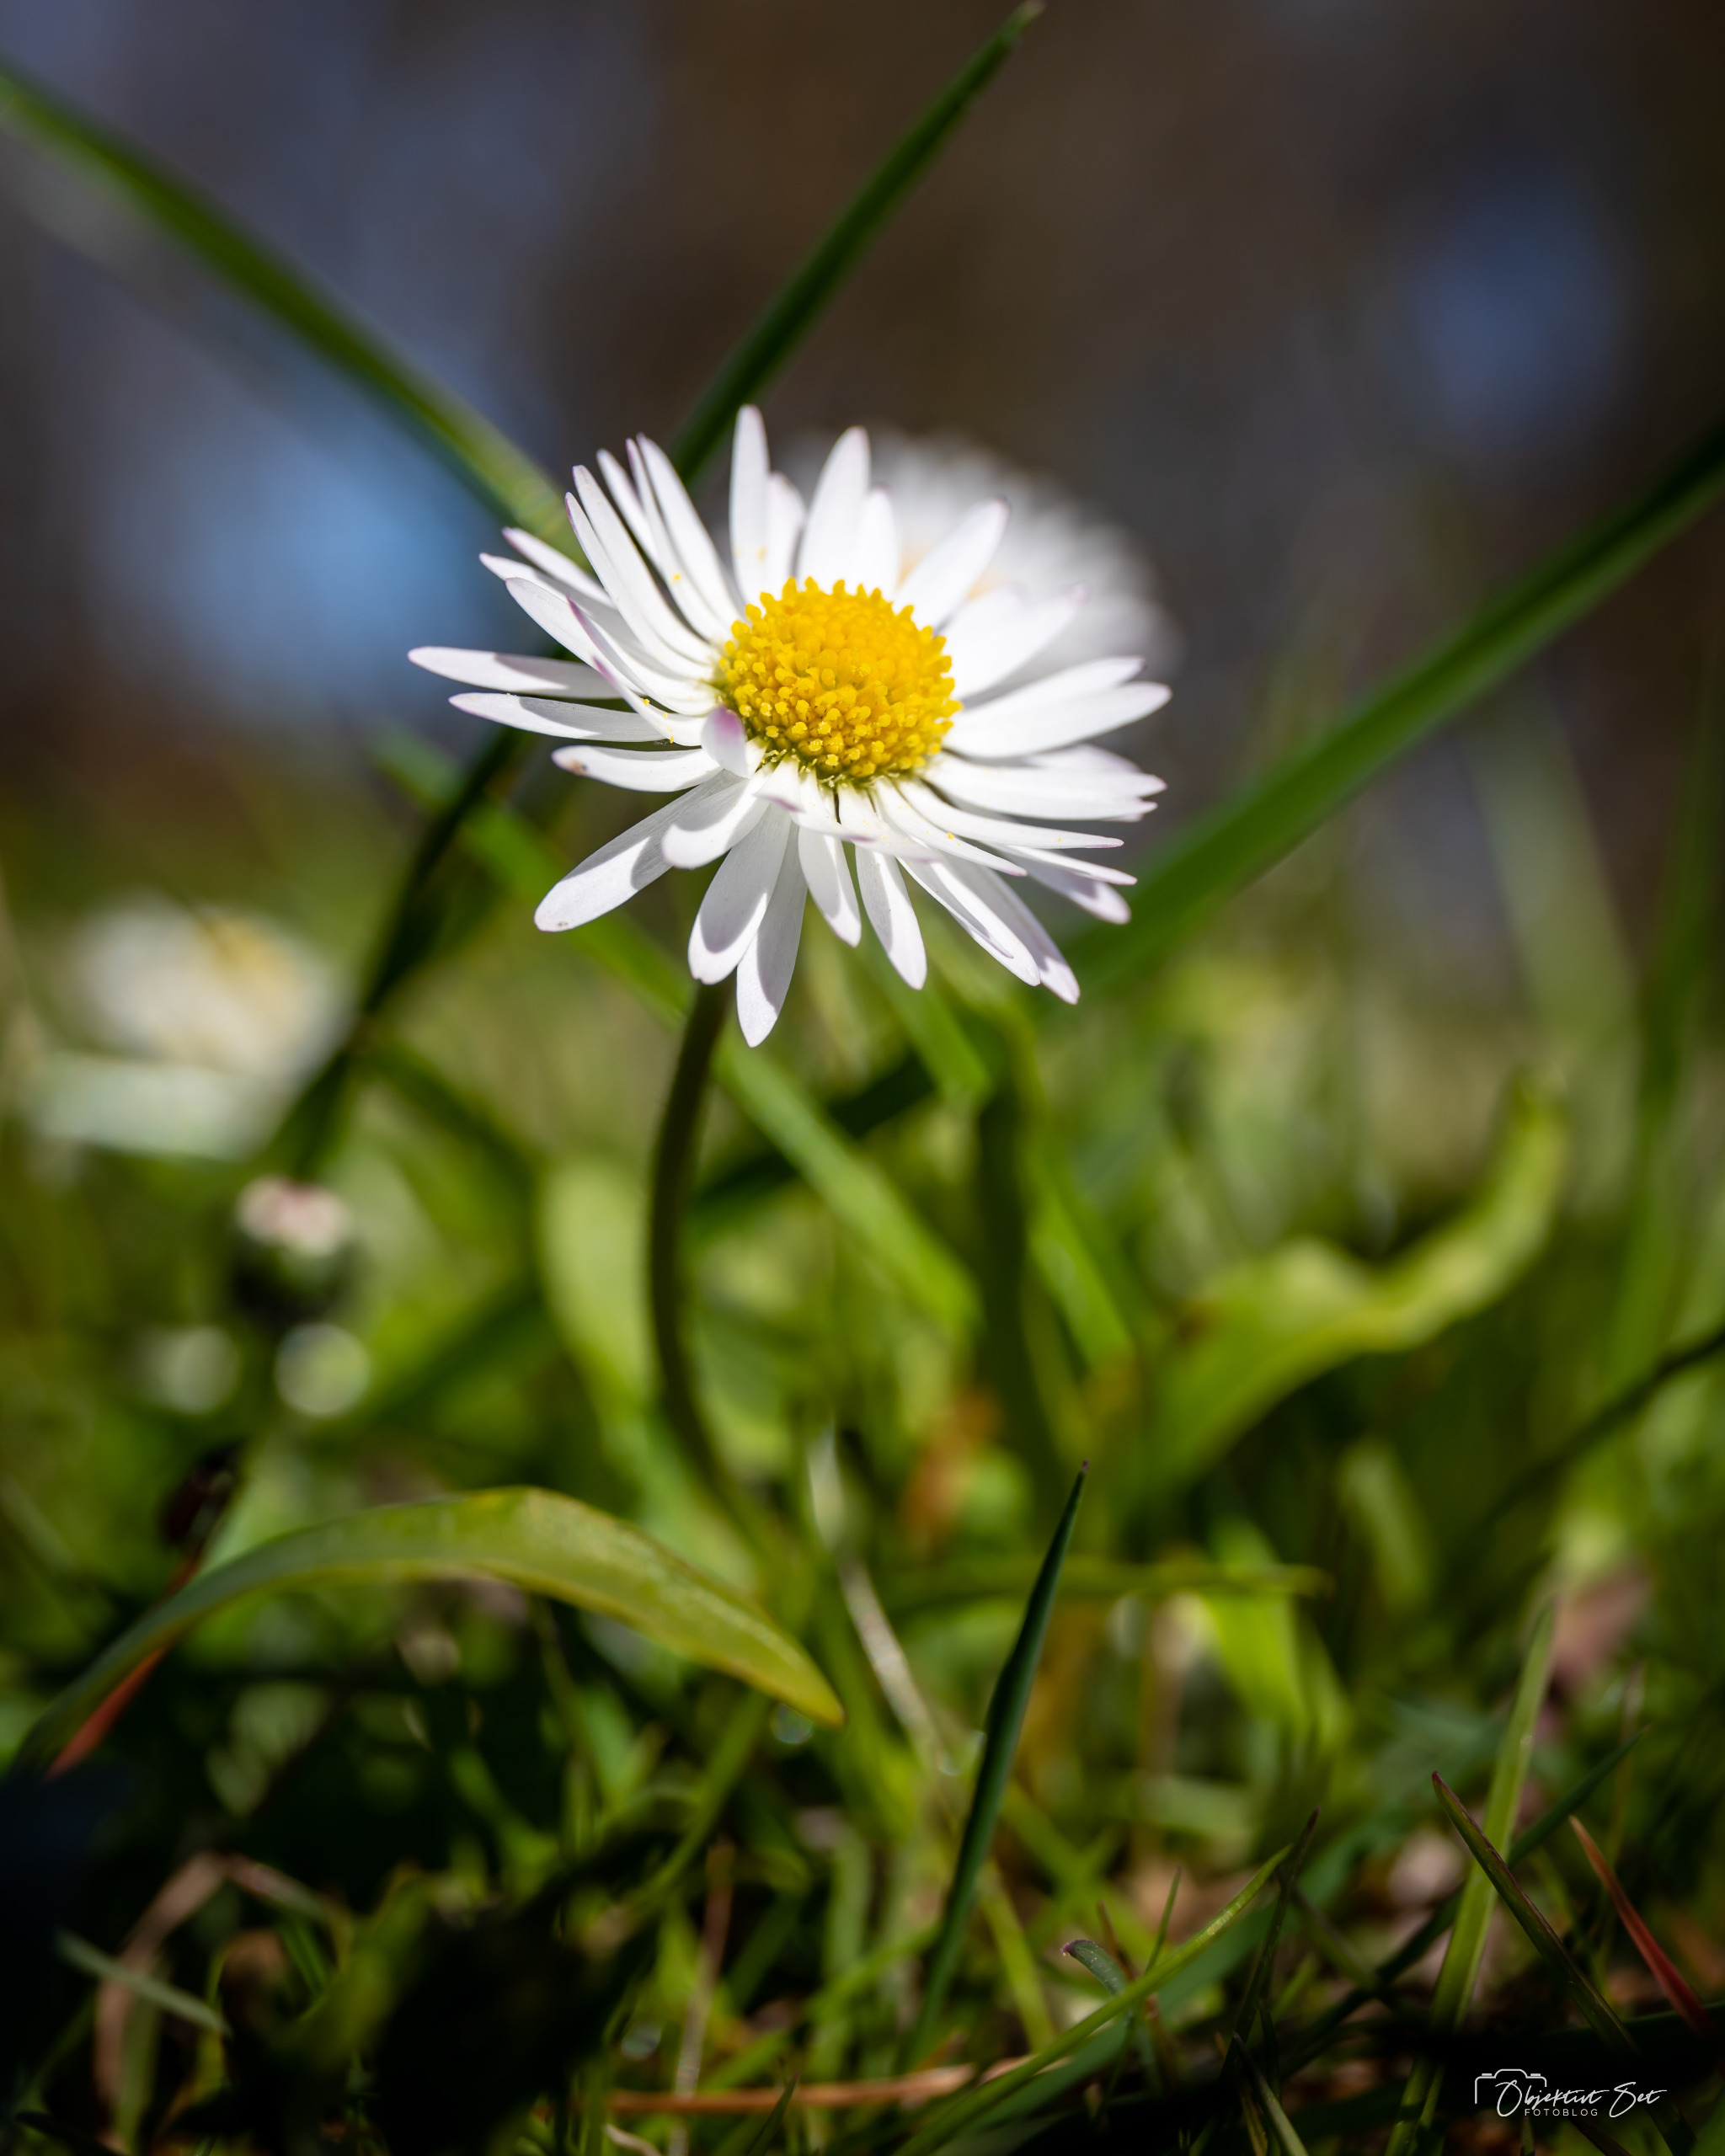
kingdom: Plantae
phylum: Tracheophyta
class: Magnoliopsida
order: Asterales
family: Asteraceae
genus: Bellis
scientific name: Bellis perennis
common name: Tusindfryd
